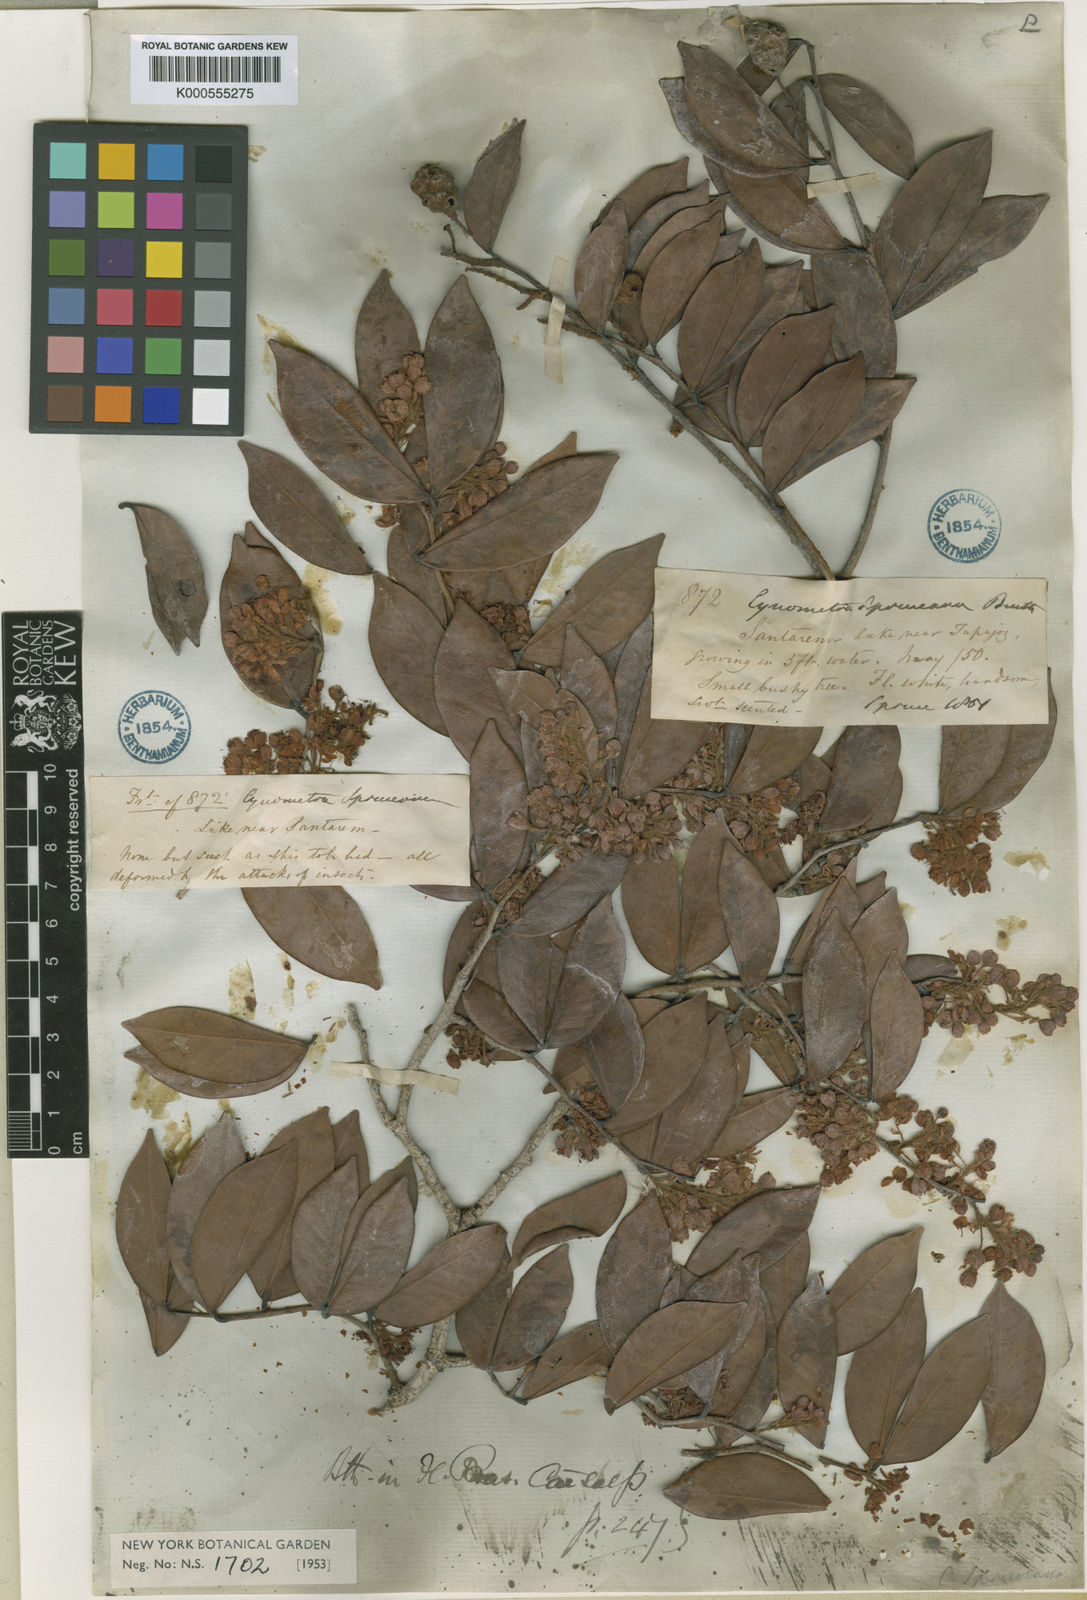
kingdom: Plantae
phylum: Tracheophyta
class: Magnoliopsida
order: Fabales
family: Fabaceae
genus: Cynometra
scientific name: Cynometra phaselocarpa
